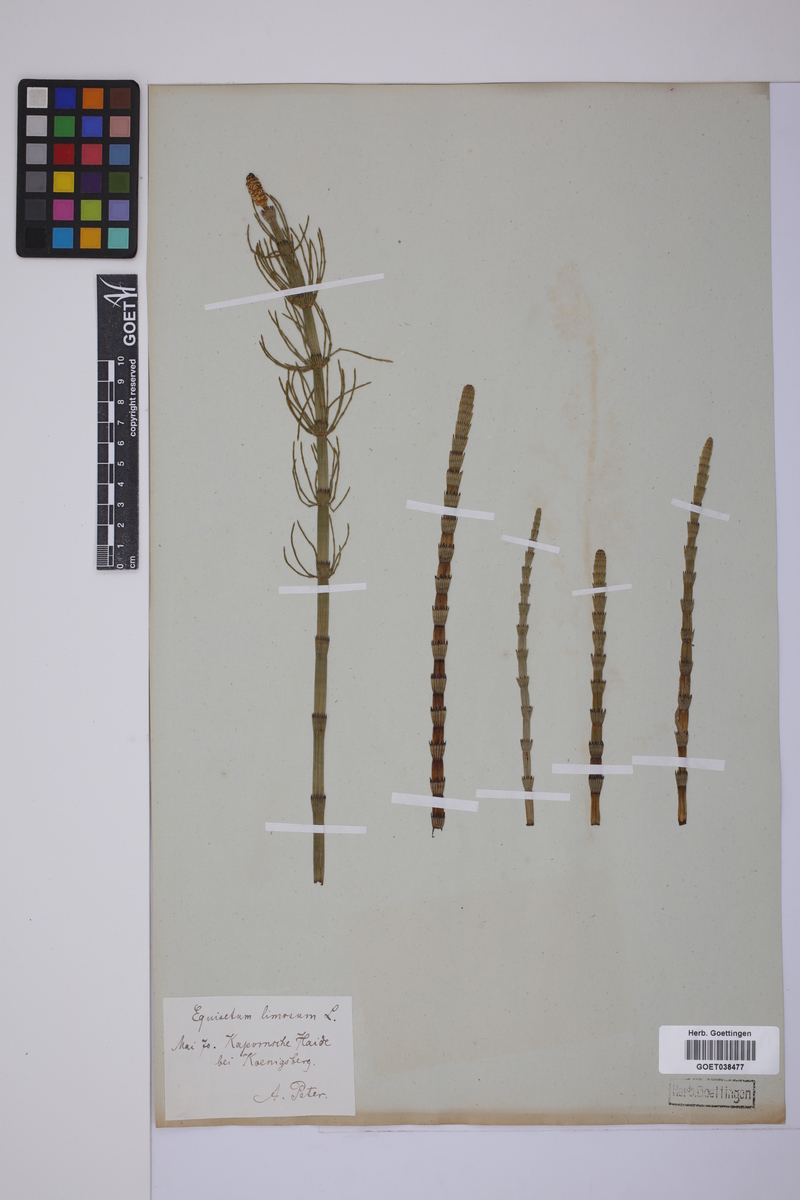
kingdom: Plantae
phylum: Tracheophyta
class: Polypodiopsida
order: Equisetales
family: Equisetaceae
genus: Equisetum
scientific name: Equisetum fluviatile
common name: Water horsetail
